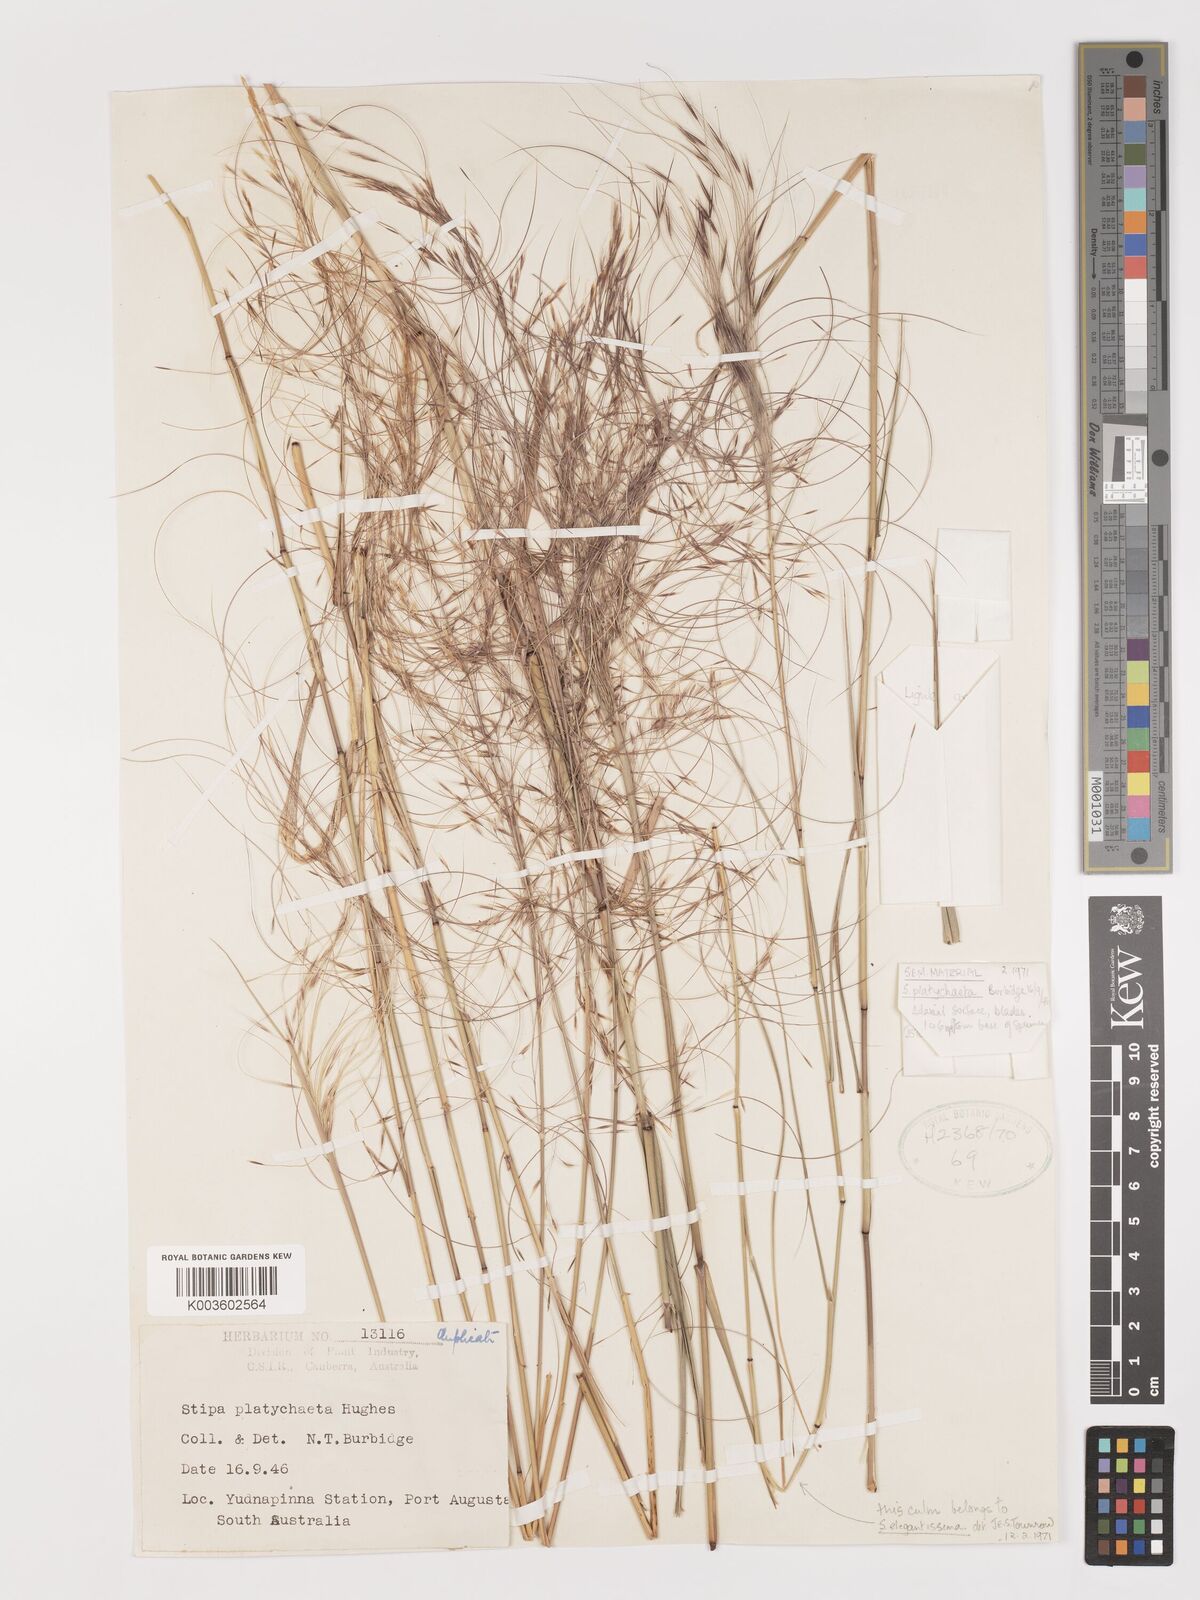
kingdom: Plantae
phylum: Tracheophyta
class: Liliopsida
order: Poales
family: Poaceae
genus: Austrostipa
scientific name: Austrostipa platychaeta
